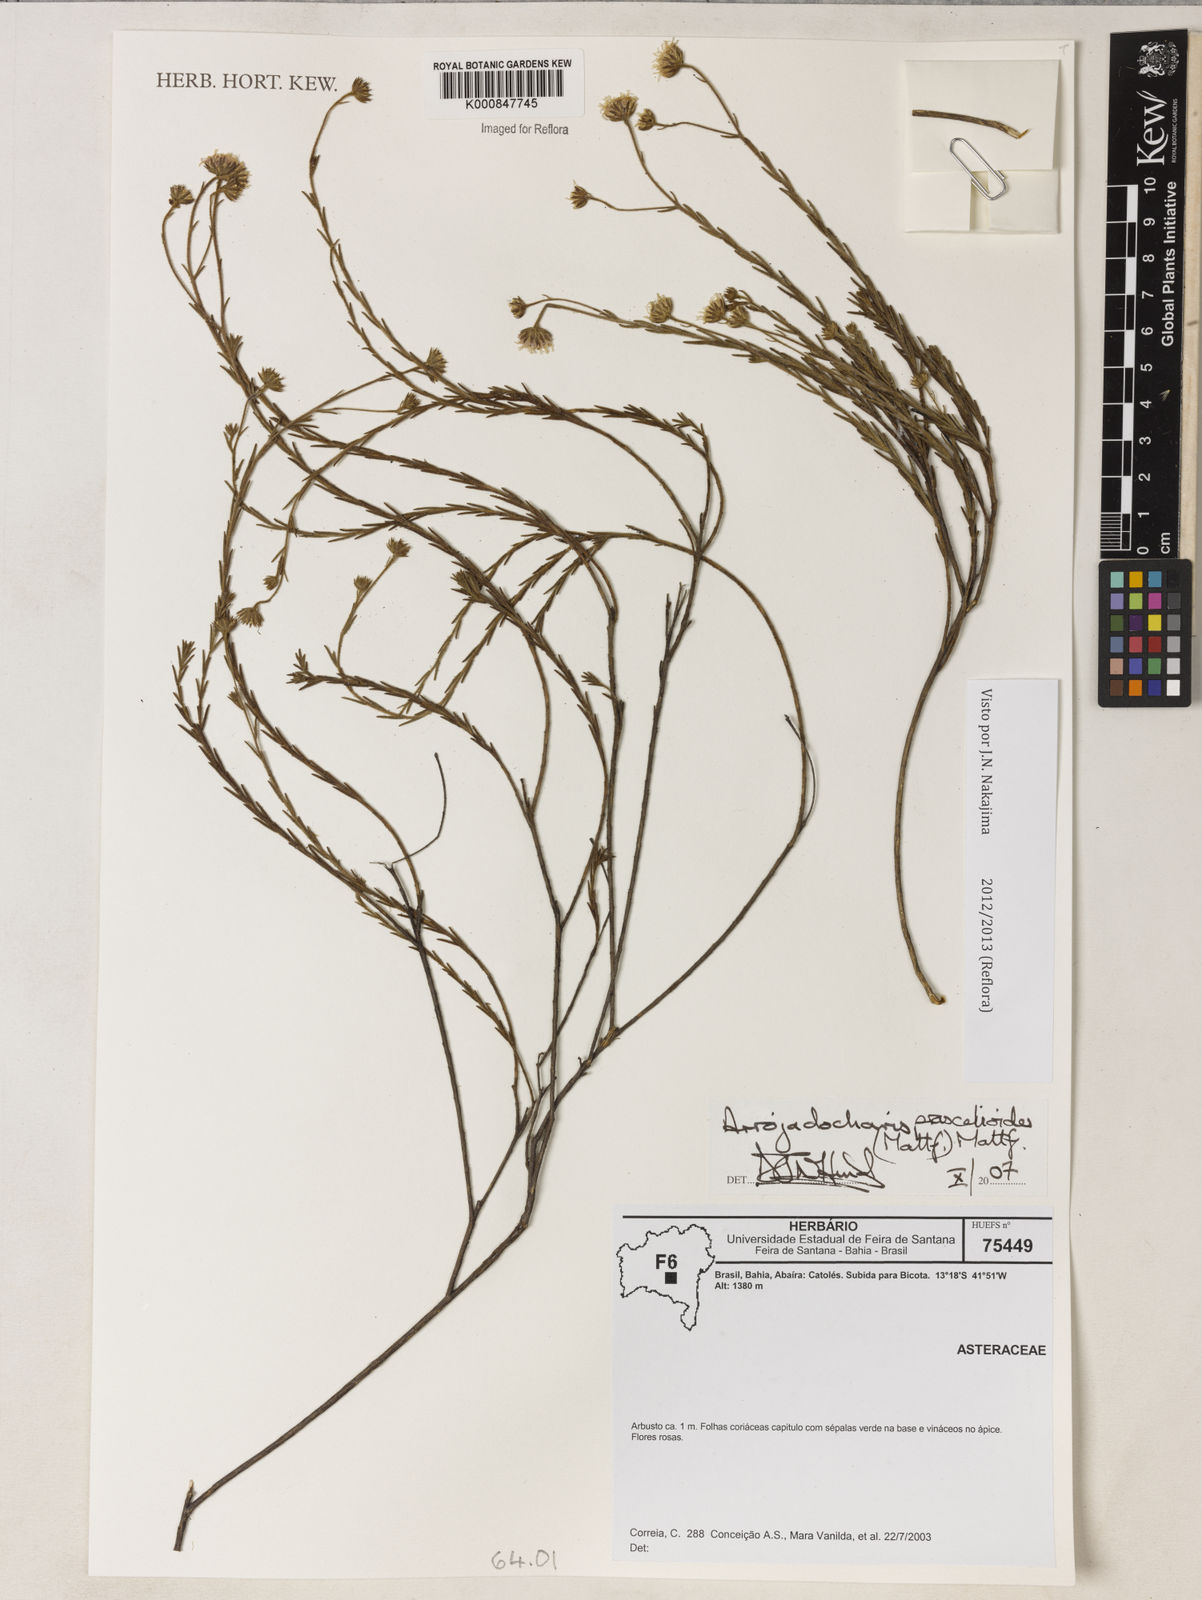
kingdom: Plantae
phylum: Tracheophyta
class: Magnoliopsida
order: Asterales
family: Asteraceae
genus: Arrojadocharis
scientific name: Arrojadocharis praxeloides
